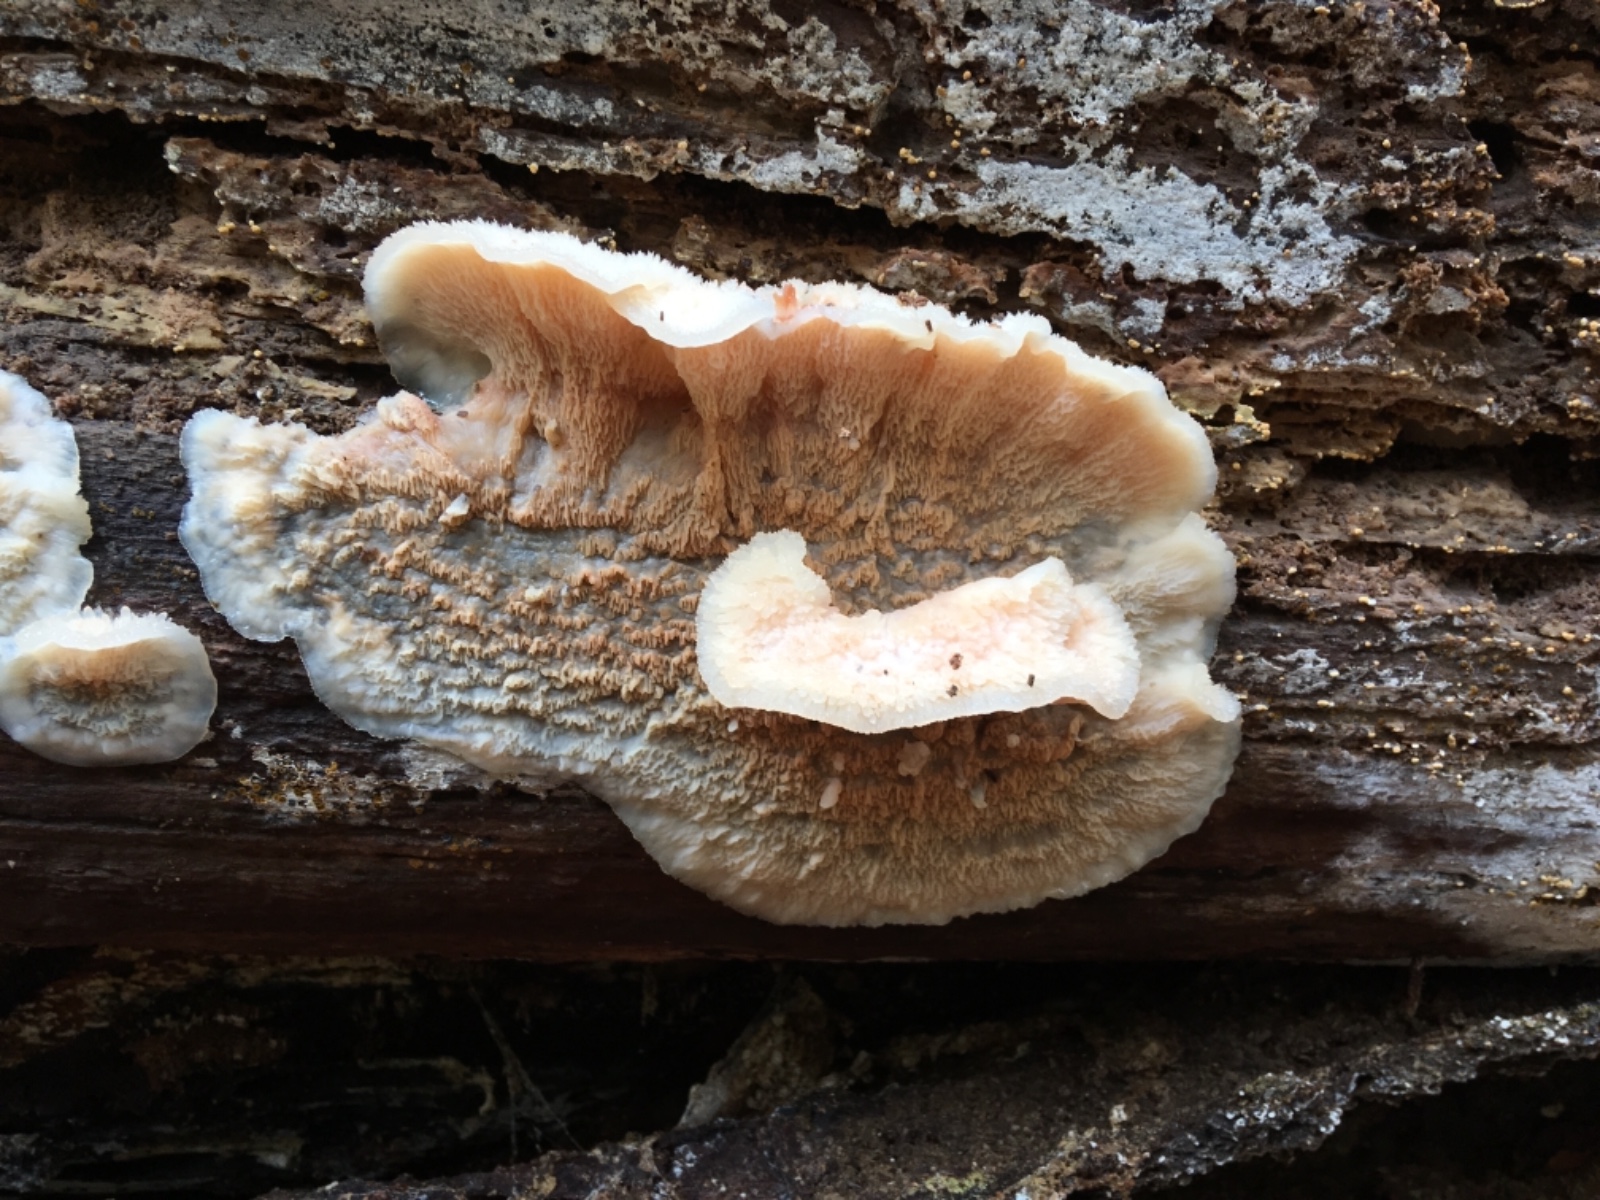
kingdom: Fungi
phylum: Basidiomycota
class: Agaricomycetes
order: Polyporales
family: Meruliaceae
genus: Phlebia
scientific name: Phlebia tremellosa
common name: bævrende åresvamp
